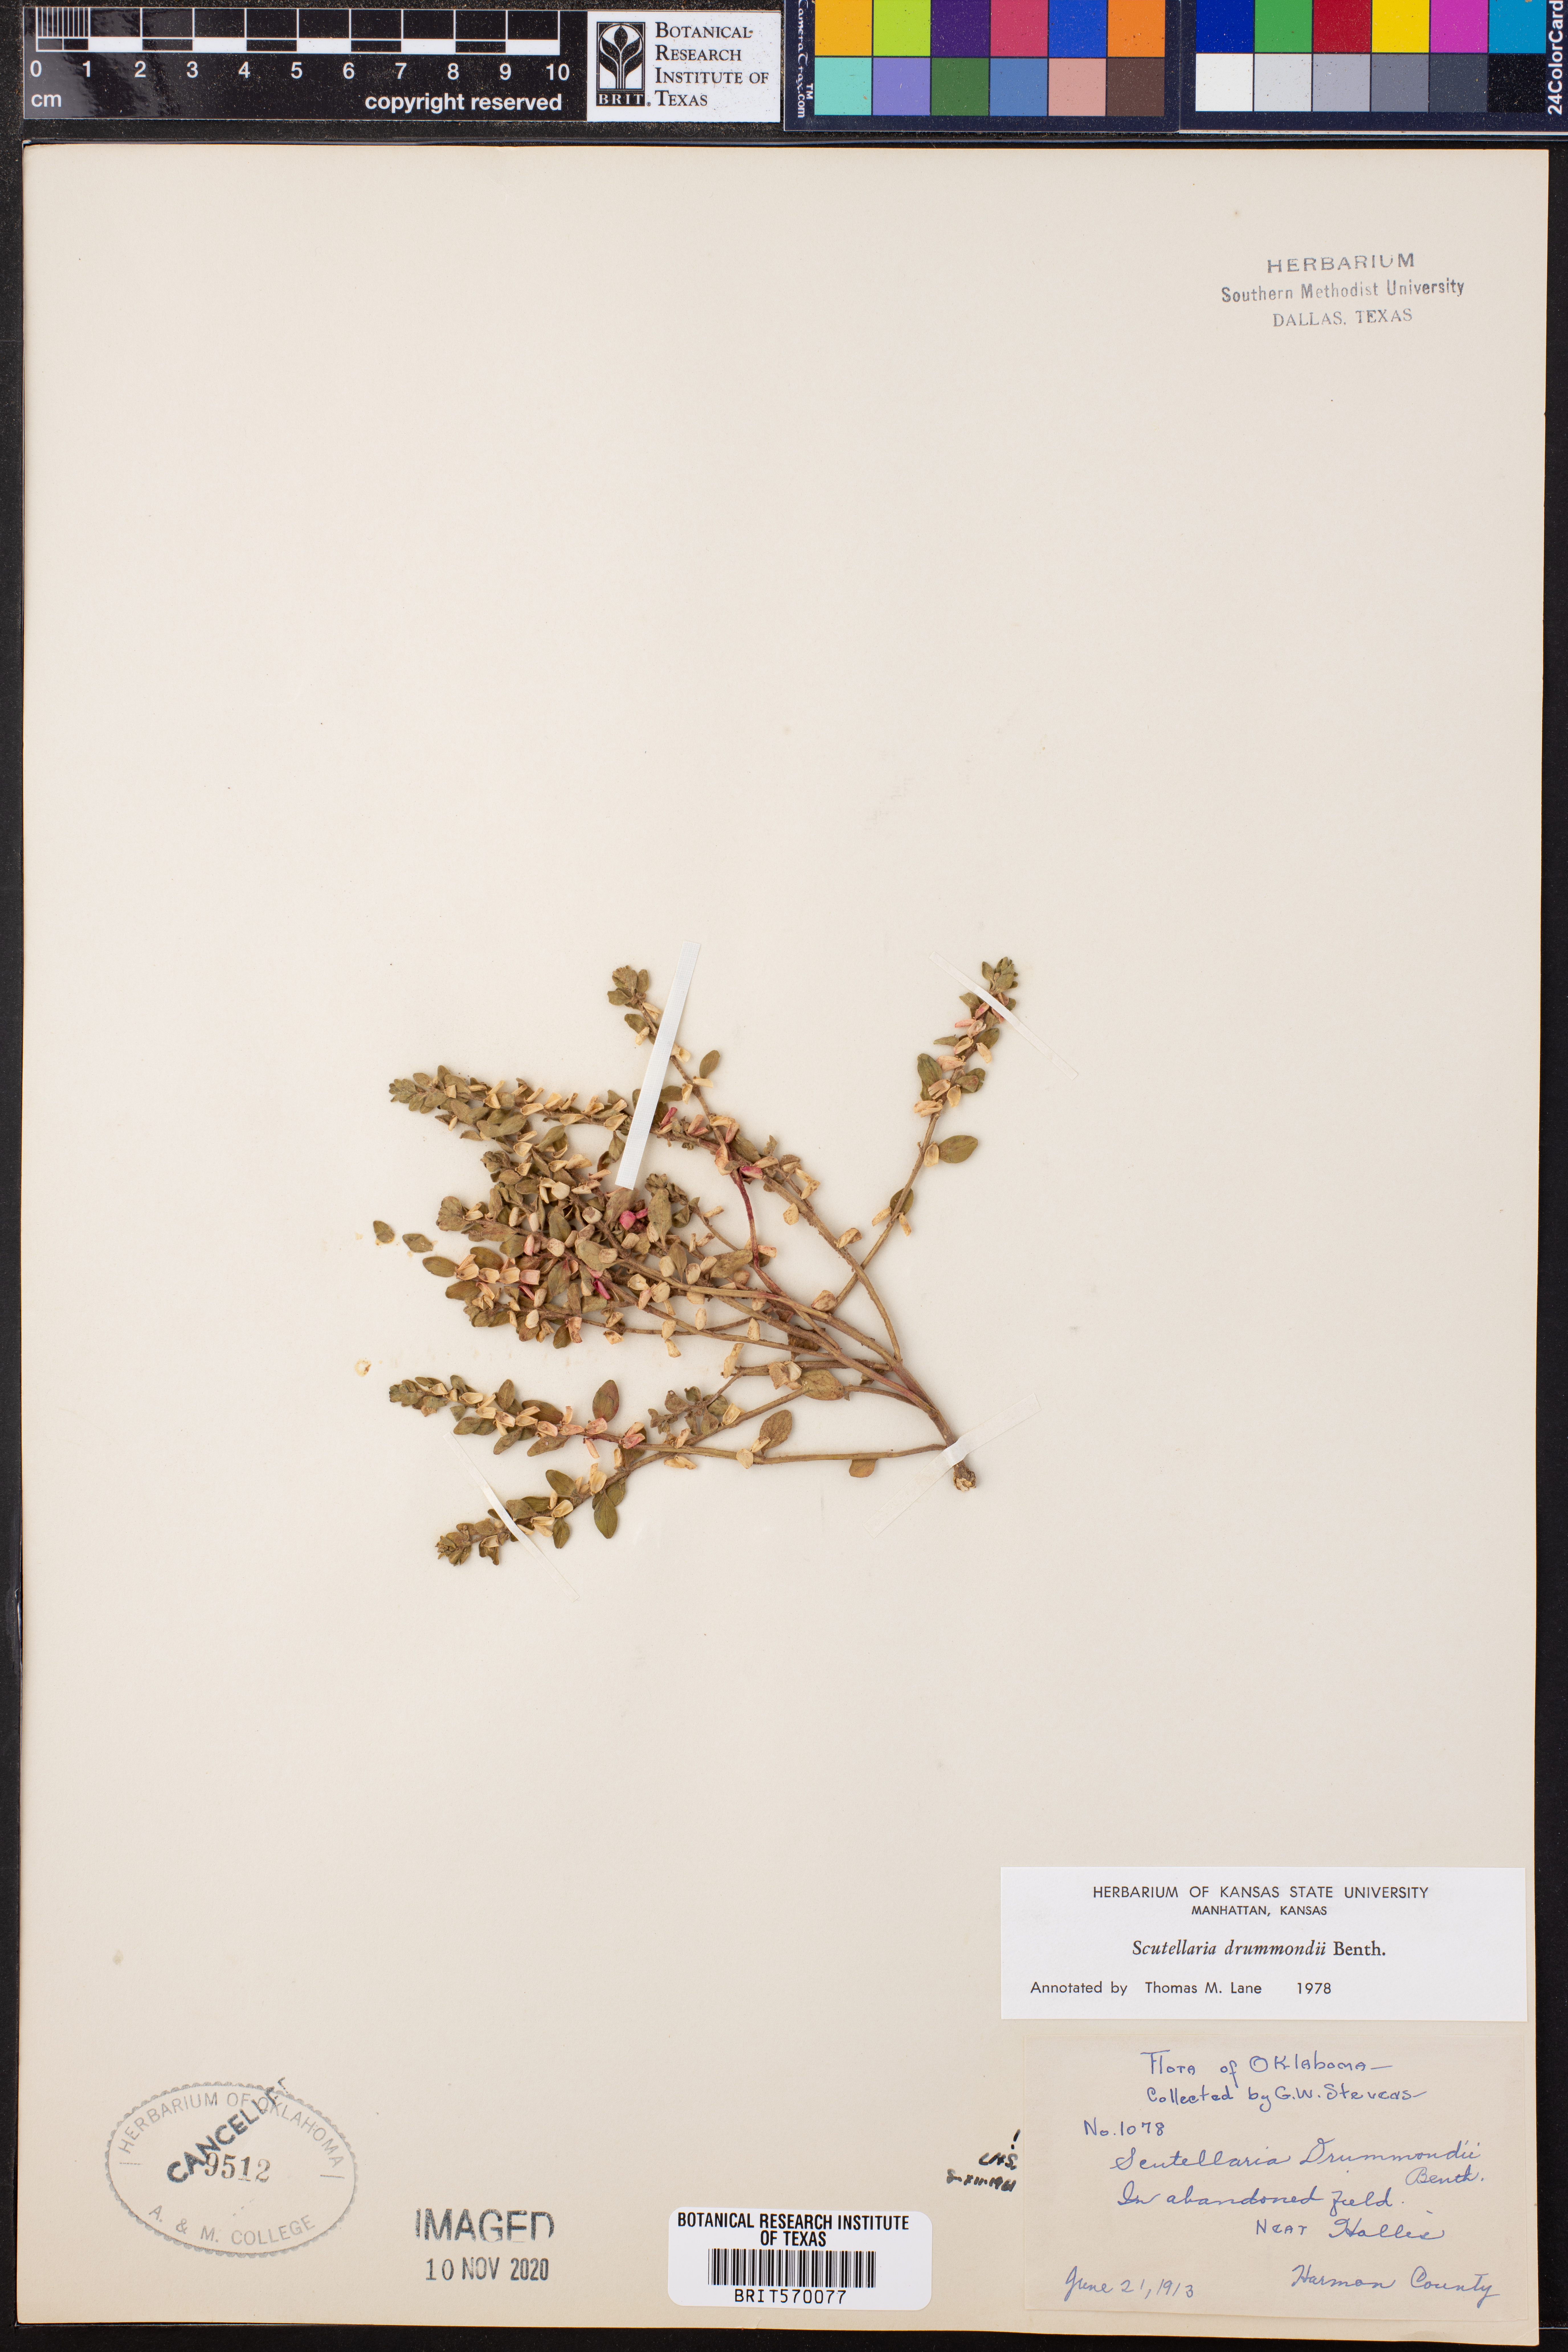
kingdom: Plantae
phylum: Tracheophyta
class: Magnoliopsida
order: Lamiales
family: Lamiaceae
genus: Scutellaria
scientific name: Scutellaria drummondii
